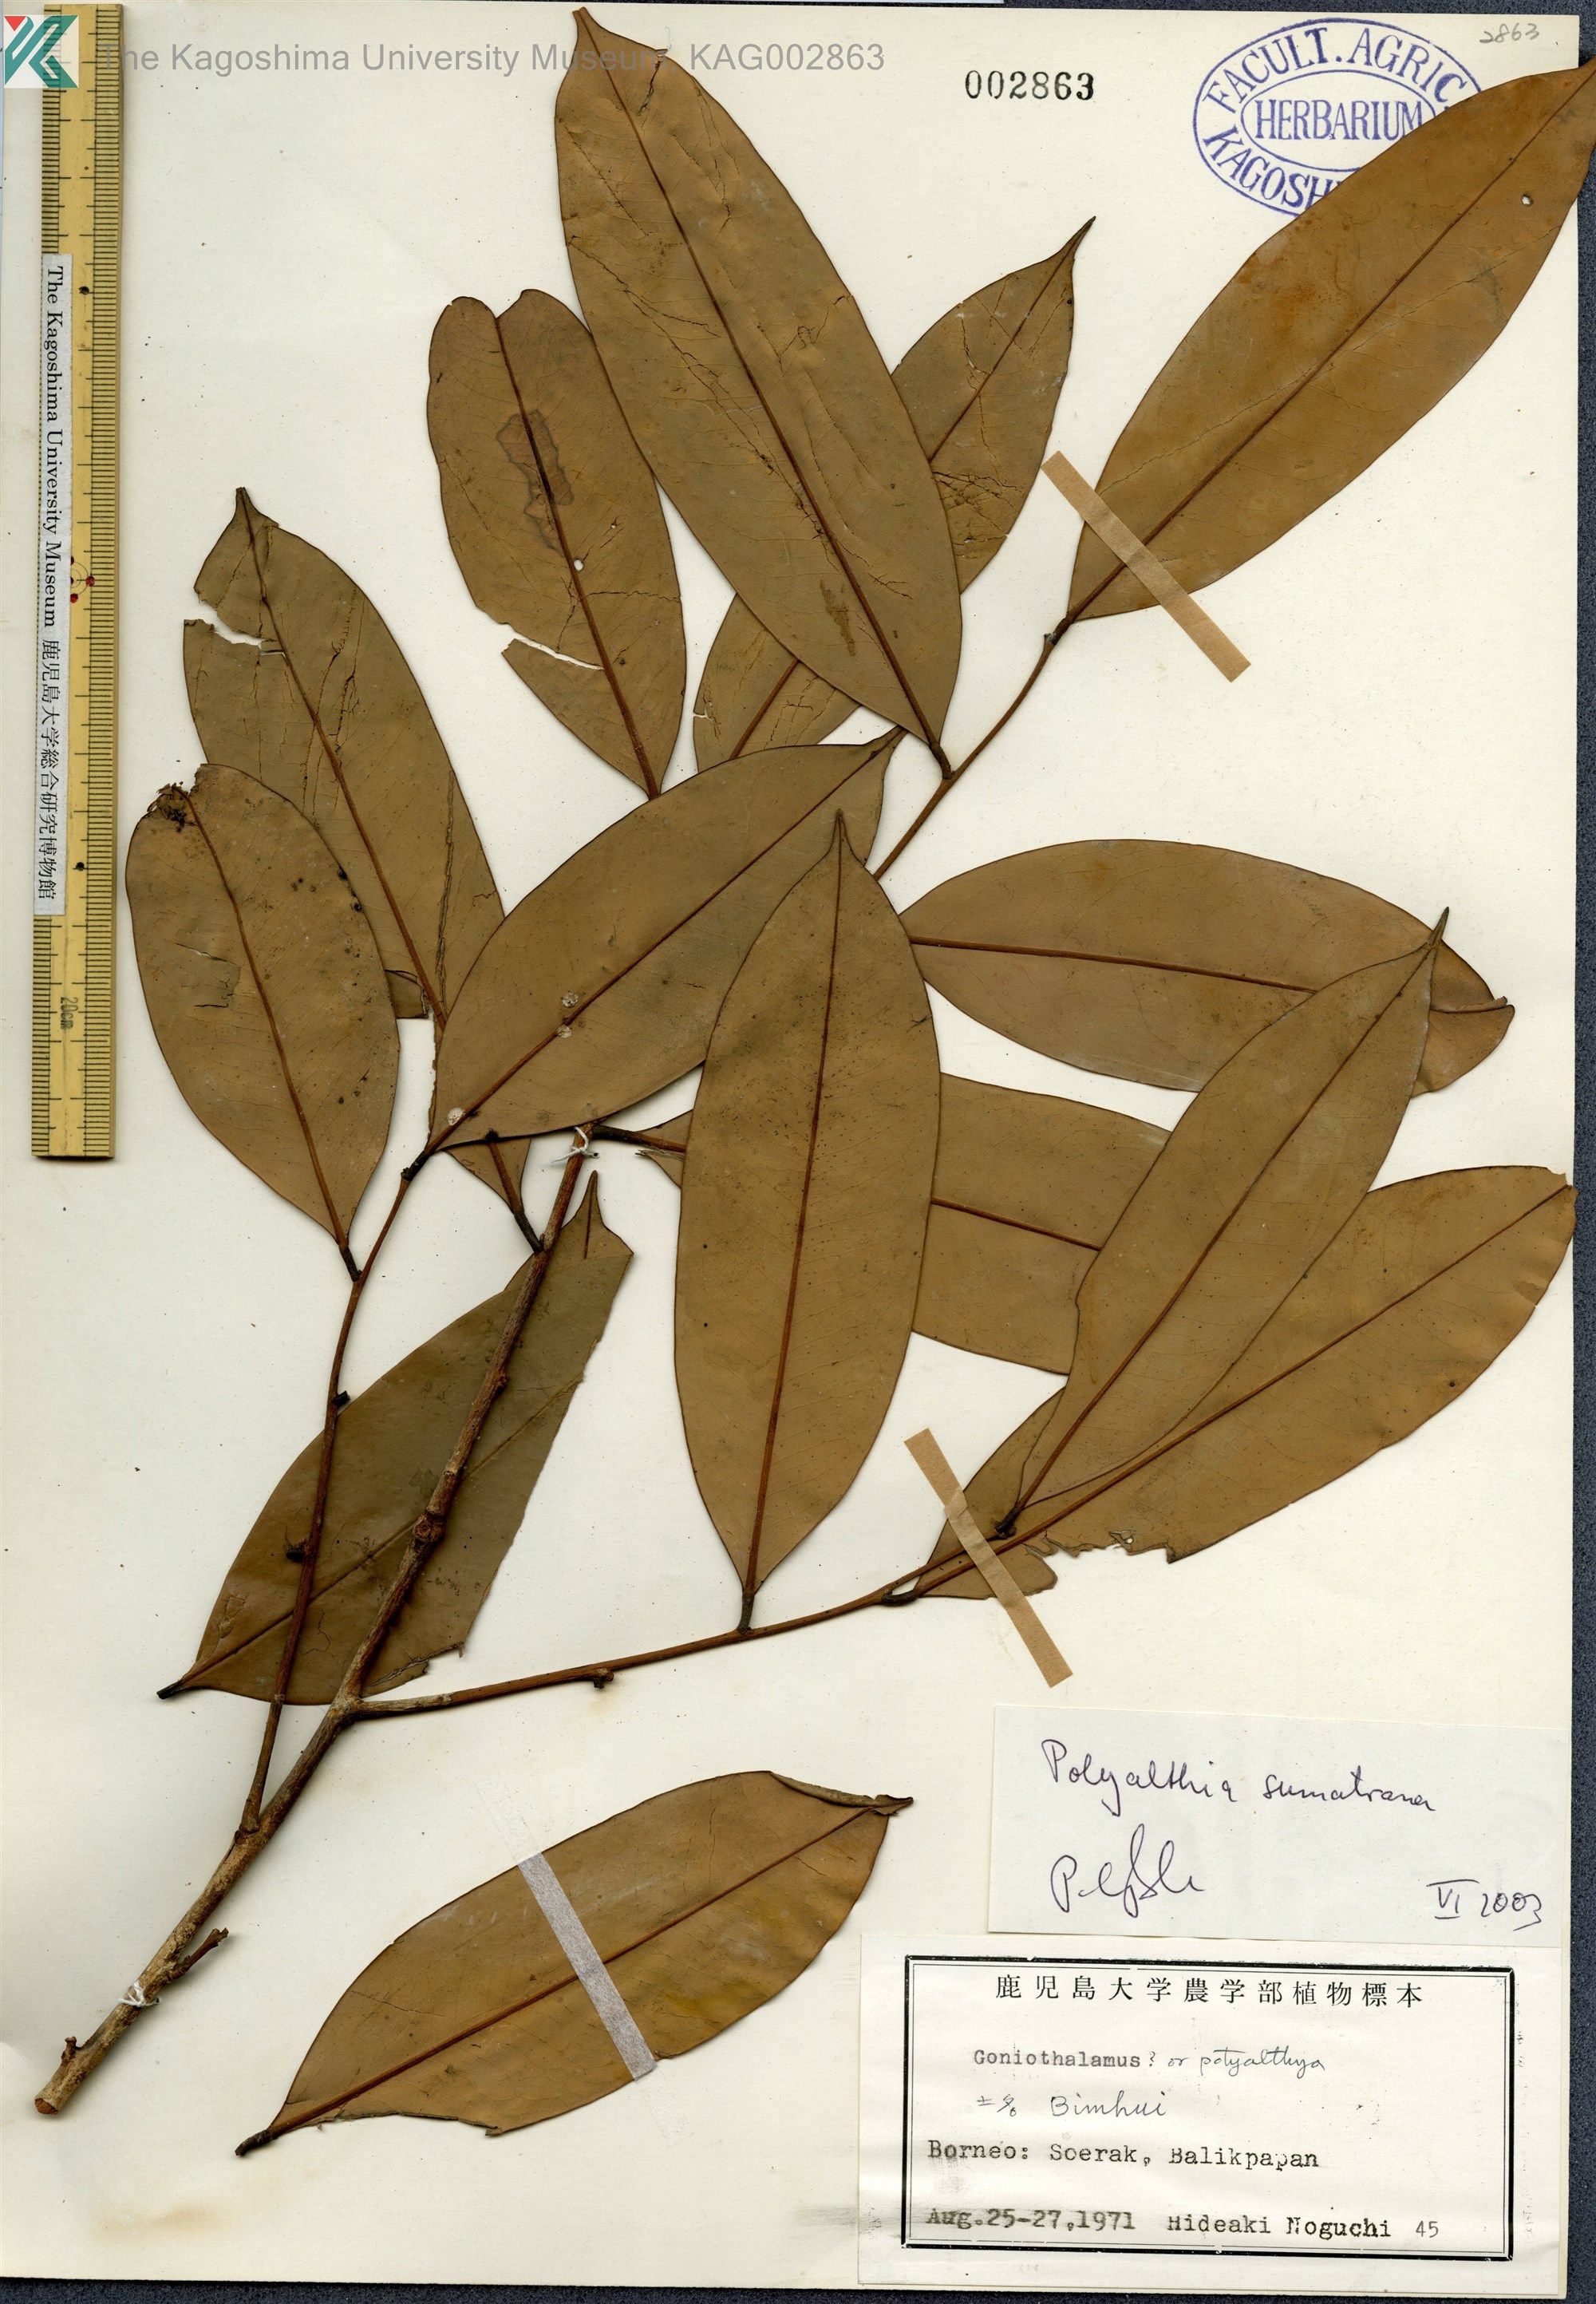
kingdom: Plantae
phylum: Tracheophyta
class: Magnoliopsida
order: Magnoliales
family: Annonaceae
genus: Polyalthia
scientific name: Polyalthia sumatrana
